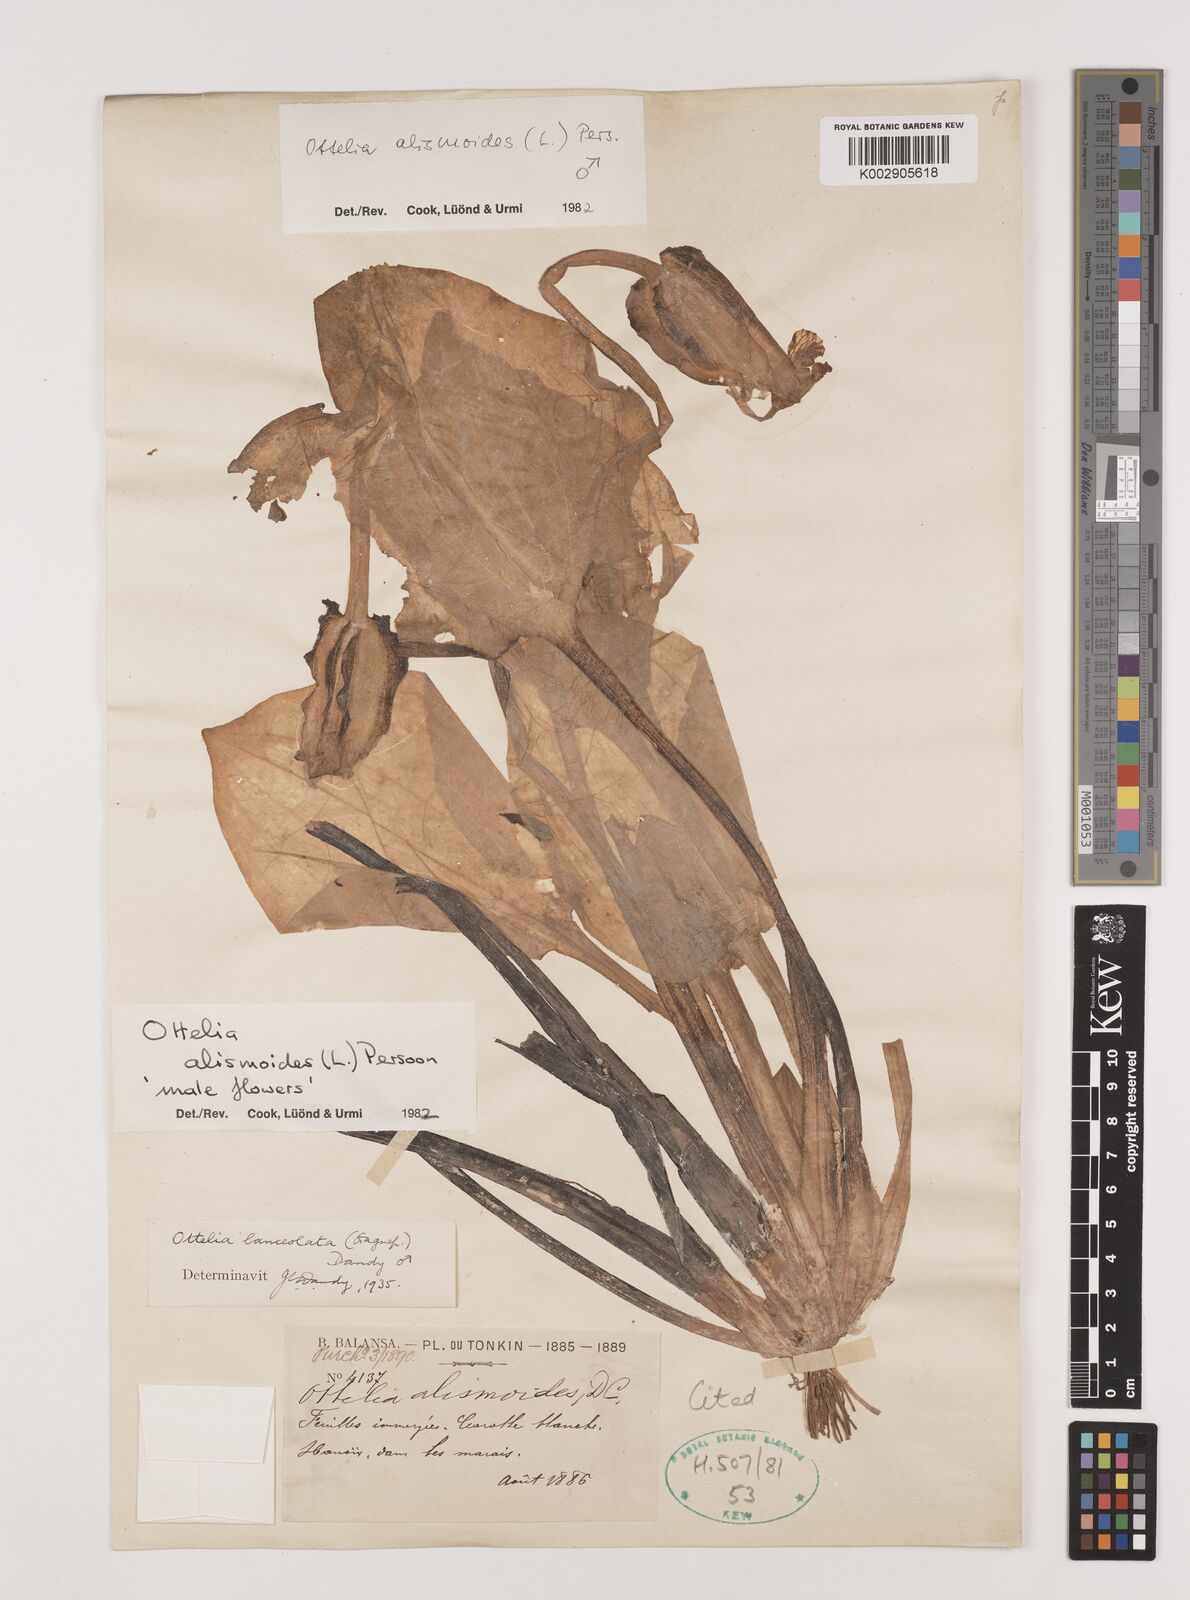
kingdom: Plantae
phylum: Tracheophyta
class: Liliopsida
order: Alismatales
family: Hydrocharitaceae
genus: Ottelia
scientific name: Ottelia alismoides
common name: Duck-lettuce
